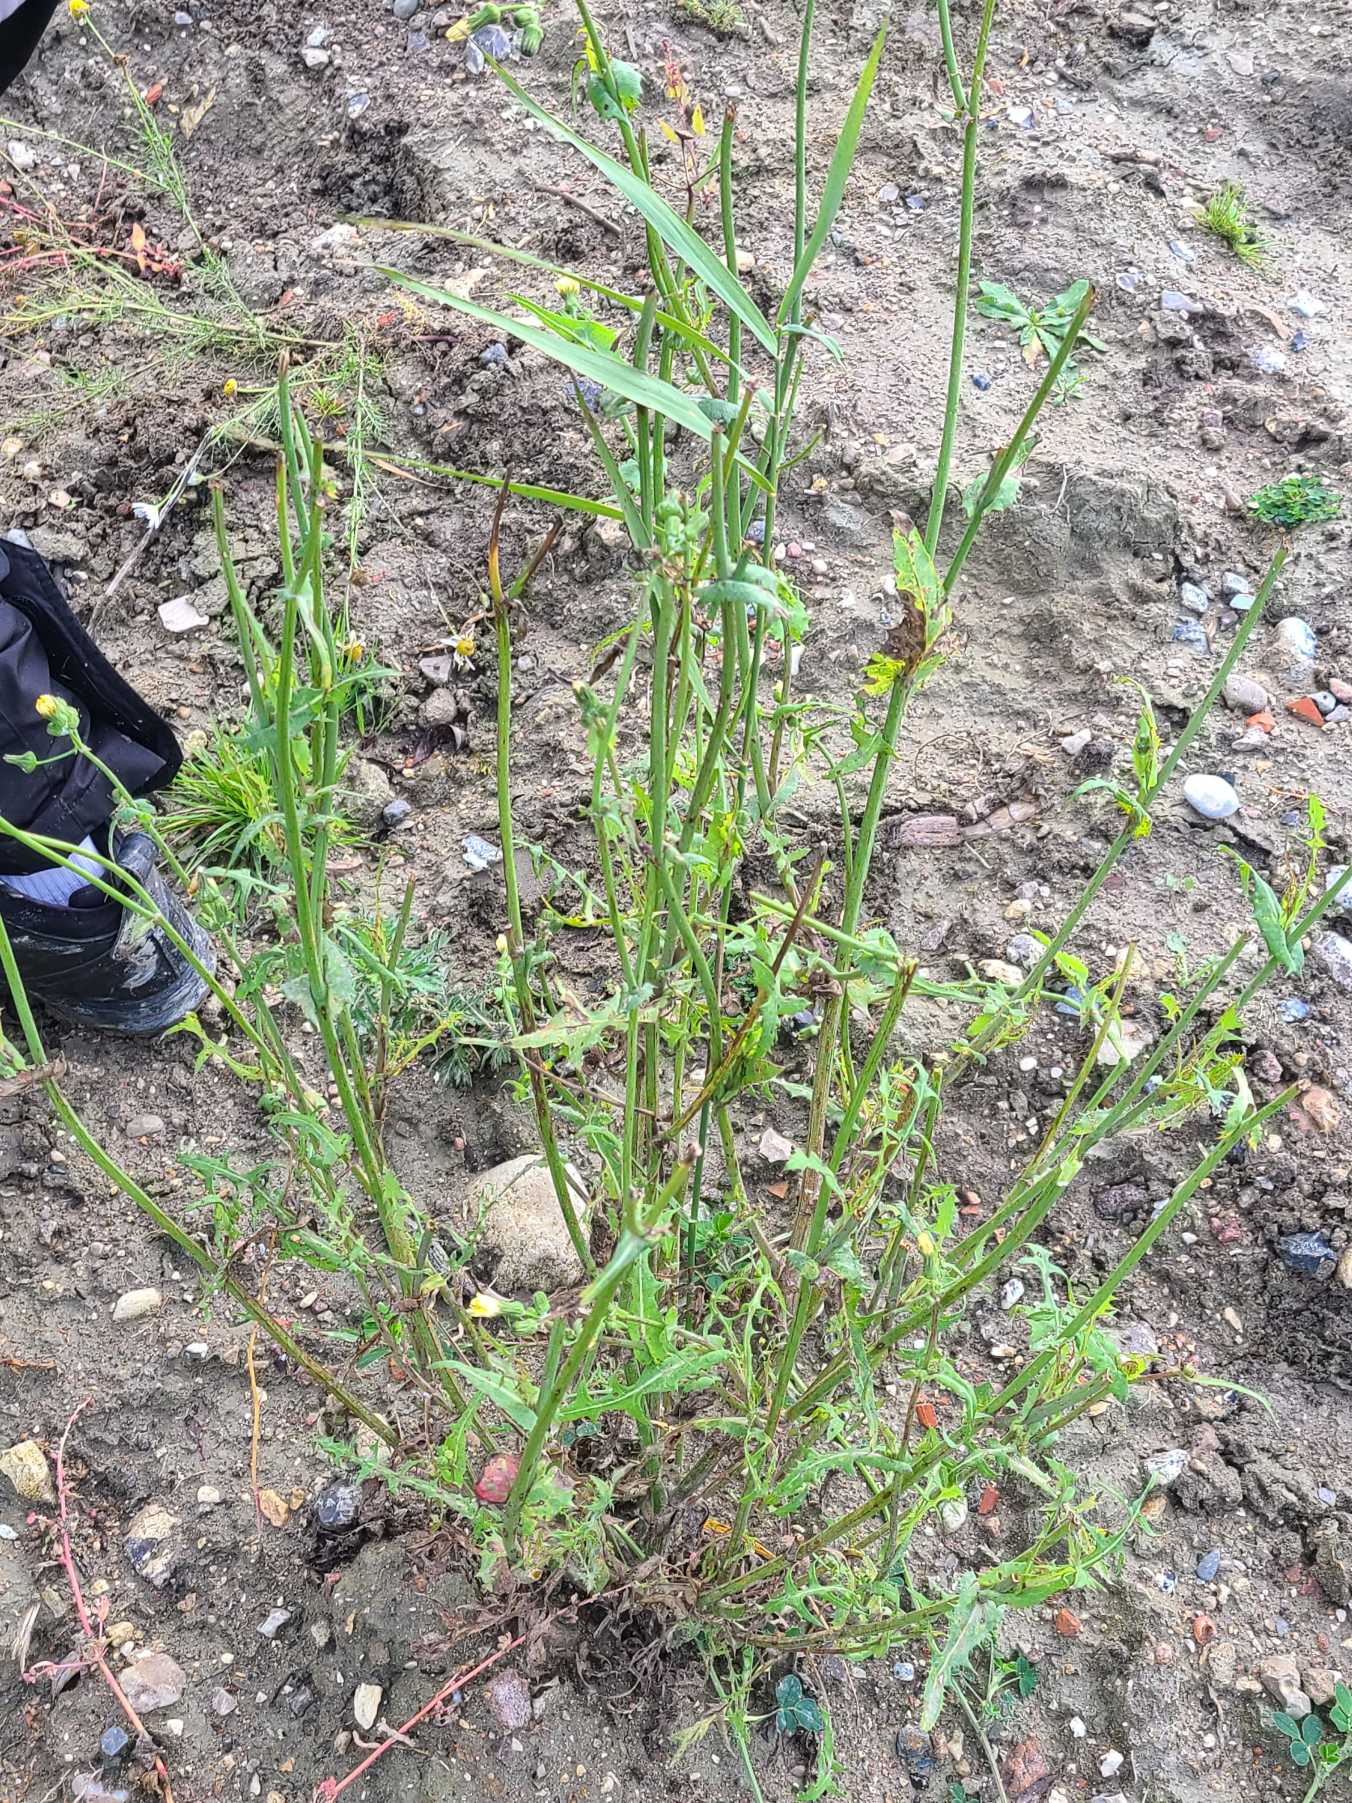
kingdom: Plantae
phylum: Tracheophyta
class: Magnoliopsida
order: Asterales
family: Asteraceae
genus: Sonchus
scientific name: Sonchus oleraceus
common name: Almindelig svinemælk
